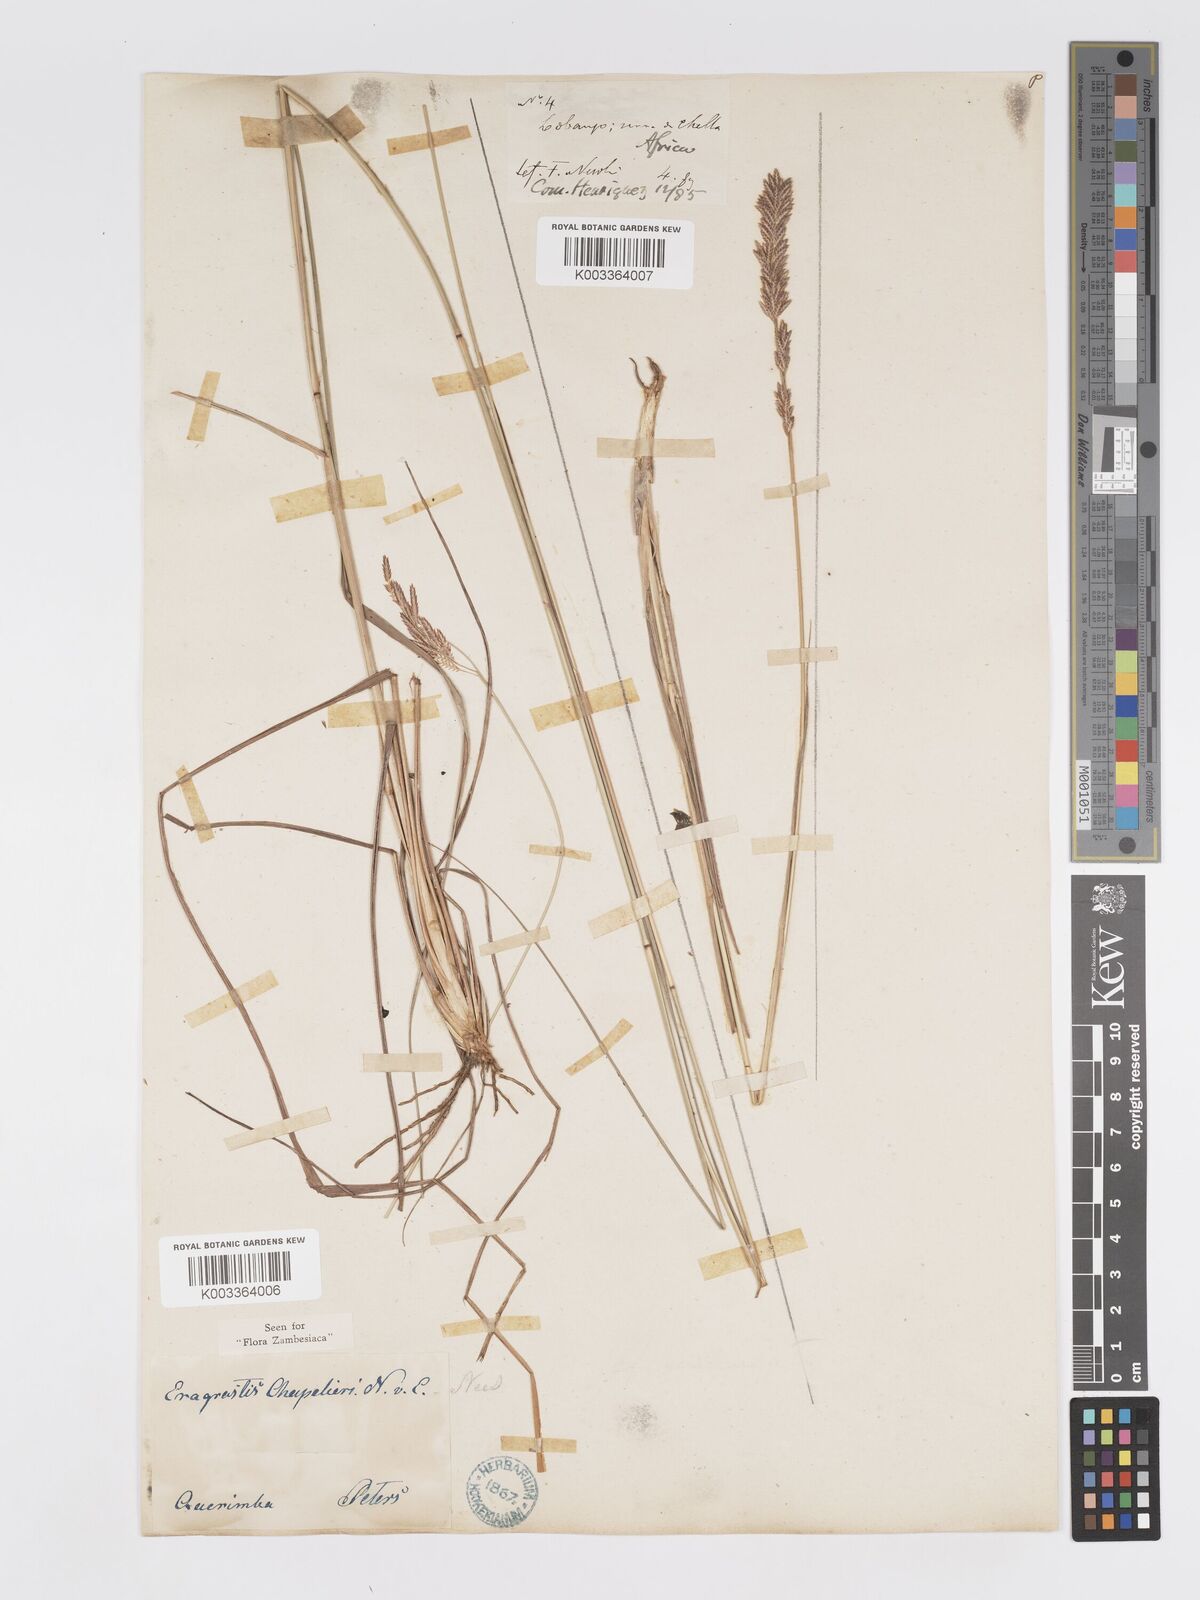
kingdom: Plantae
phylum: Tracheophyta
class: Liliopsida
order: Poales
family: Poaceae
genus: Eragrostis
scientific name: Eragrostis chapelieri
